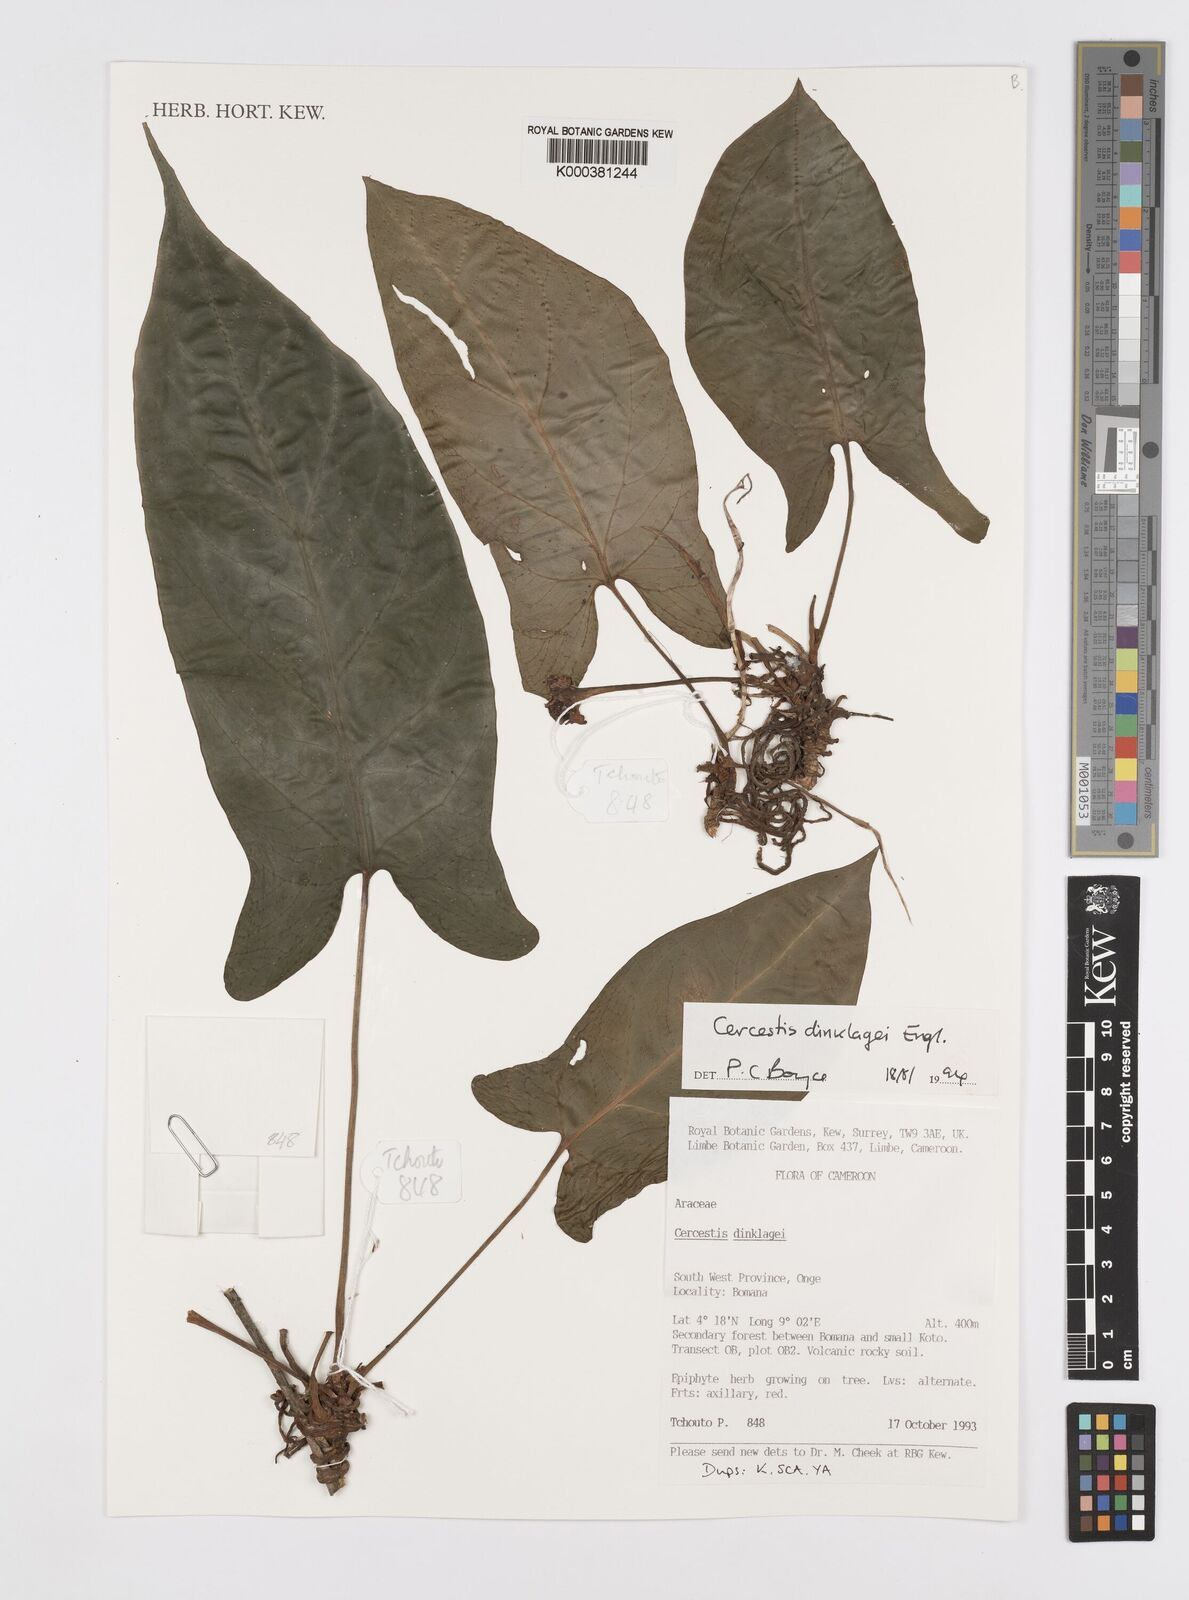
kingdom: Plantae
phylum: Tracheophyta
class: Liliopsida
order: Alismatales
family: Araceae
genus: Cercestis
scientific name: Cercestis dinklagei
